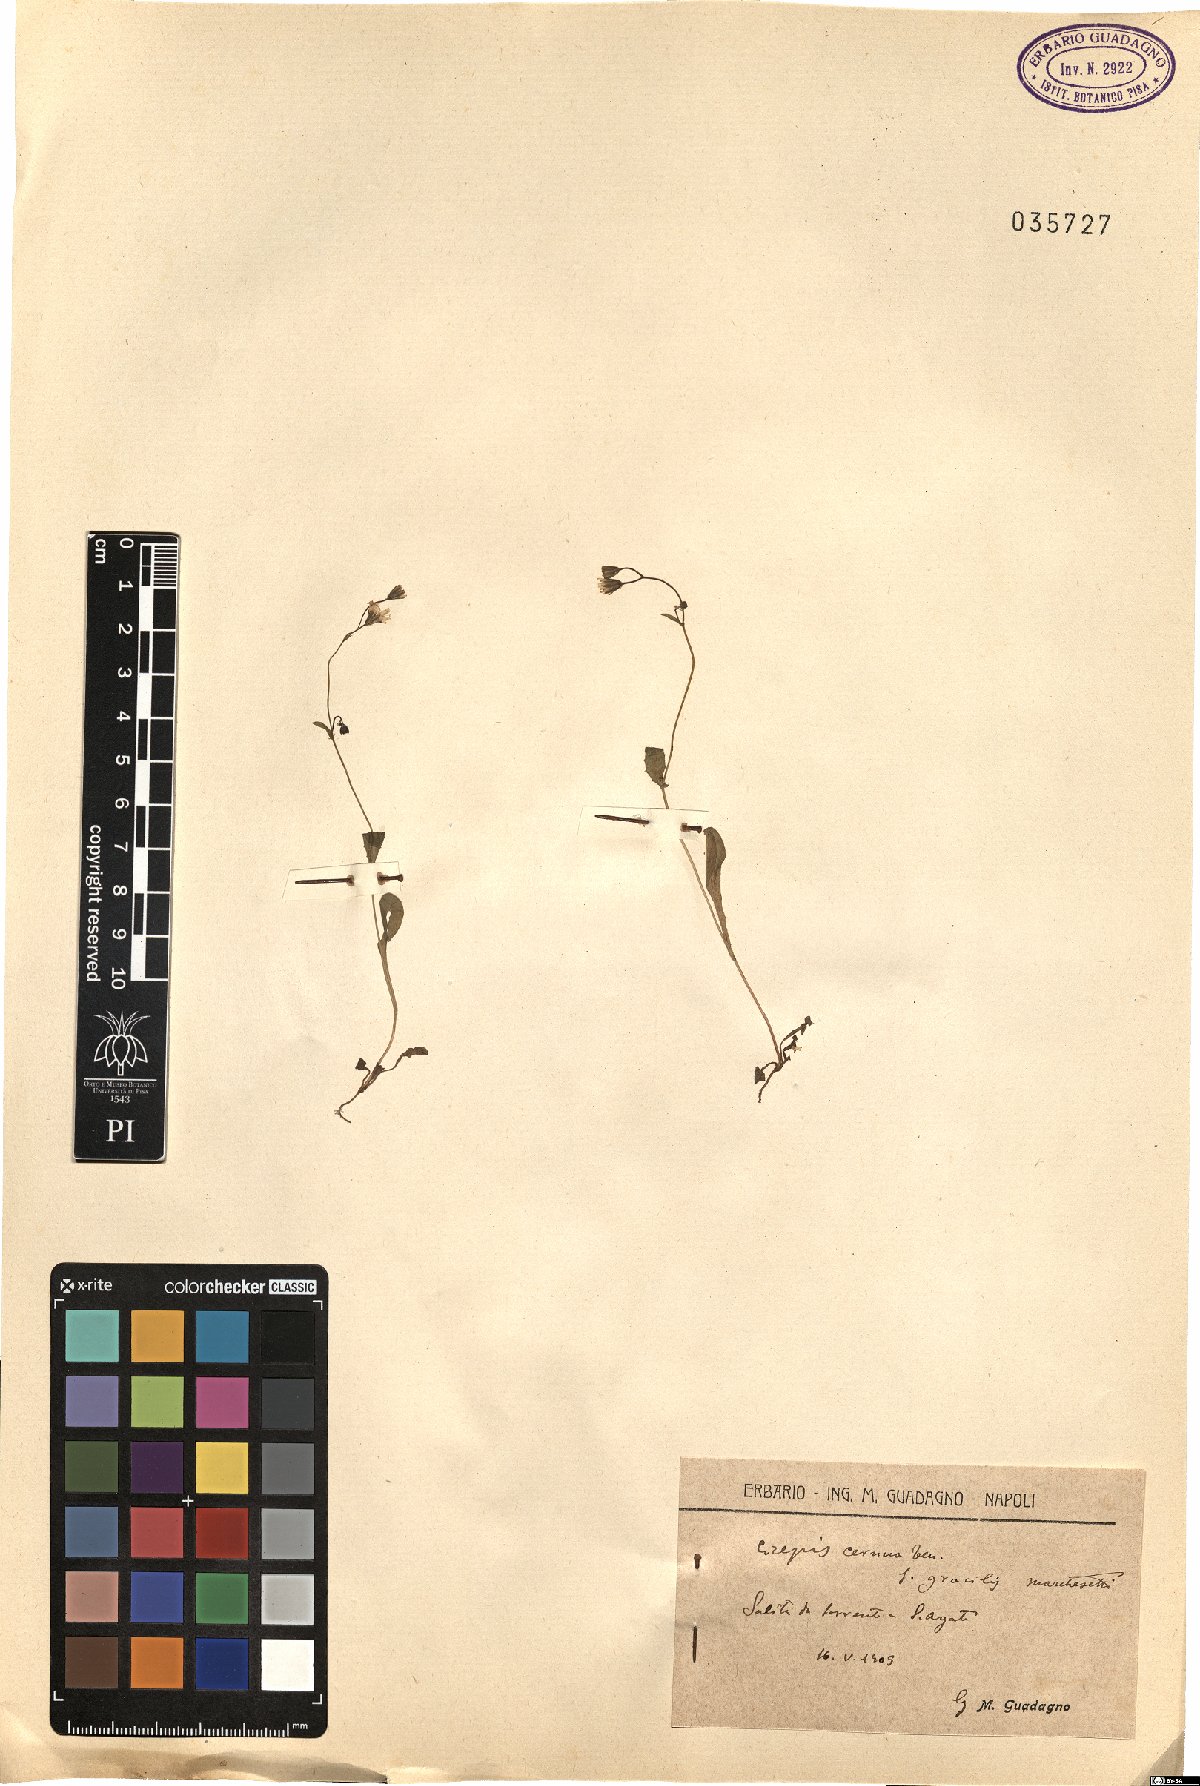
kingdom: Plantae
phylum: Tracheophyta
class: Magnoliopsida
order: Asterales
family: Asteraceae
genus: Crepis
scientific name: Crepis neglecta
